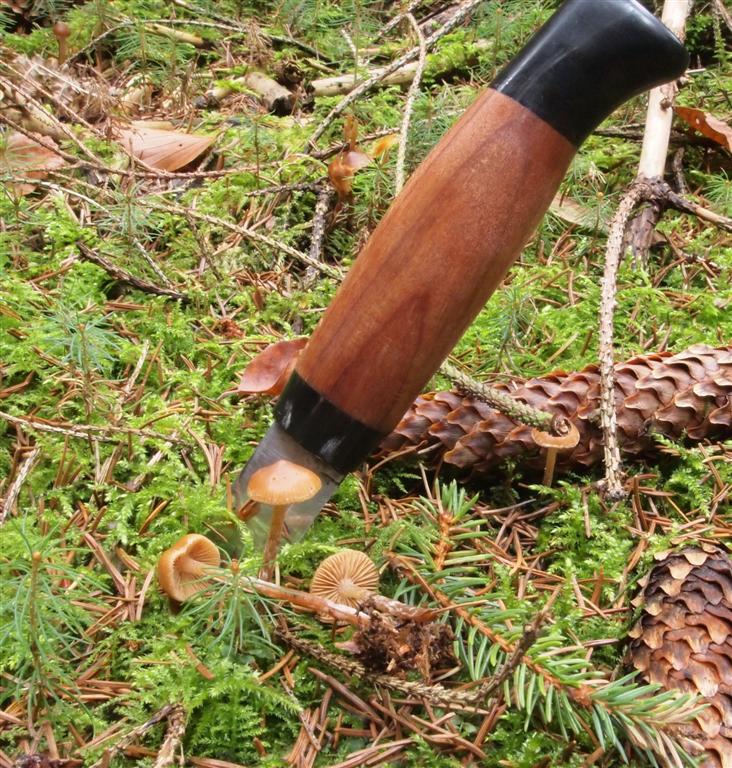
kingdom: Fungi
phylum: Basidiomycota
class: Agaricomycetes
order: Agaricales
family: Hymenogastraceae
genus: Galerina
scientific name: Galerina sideroides
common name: træflis-hjelmhat
